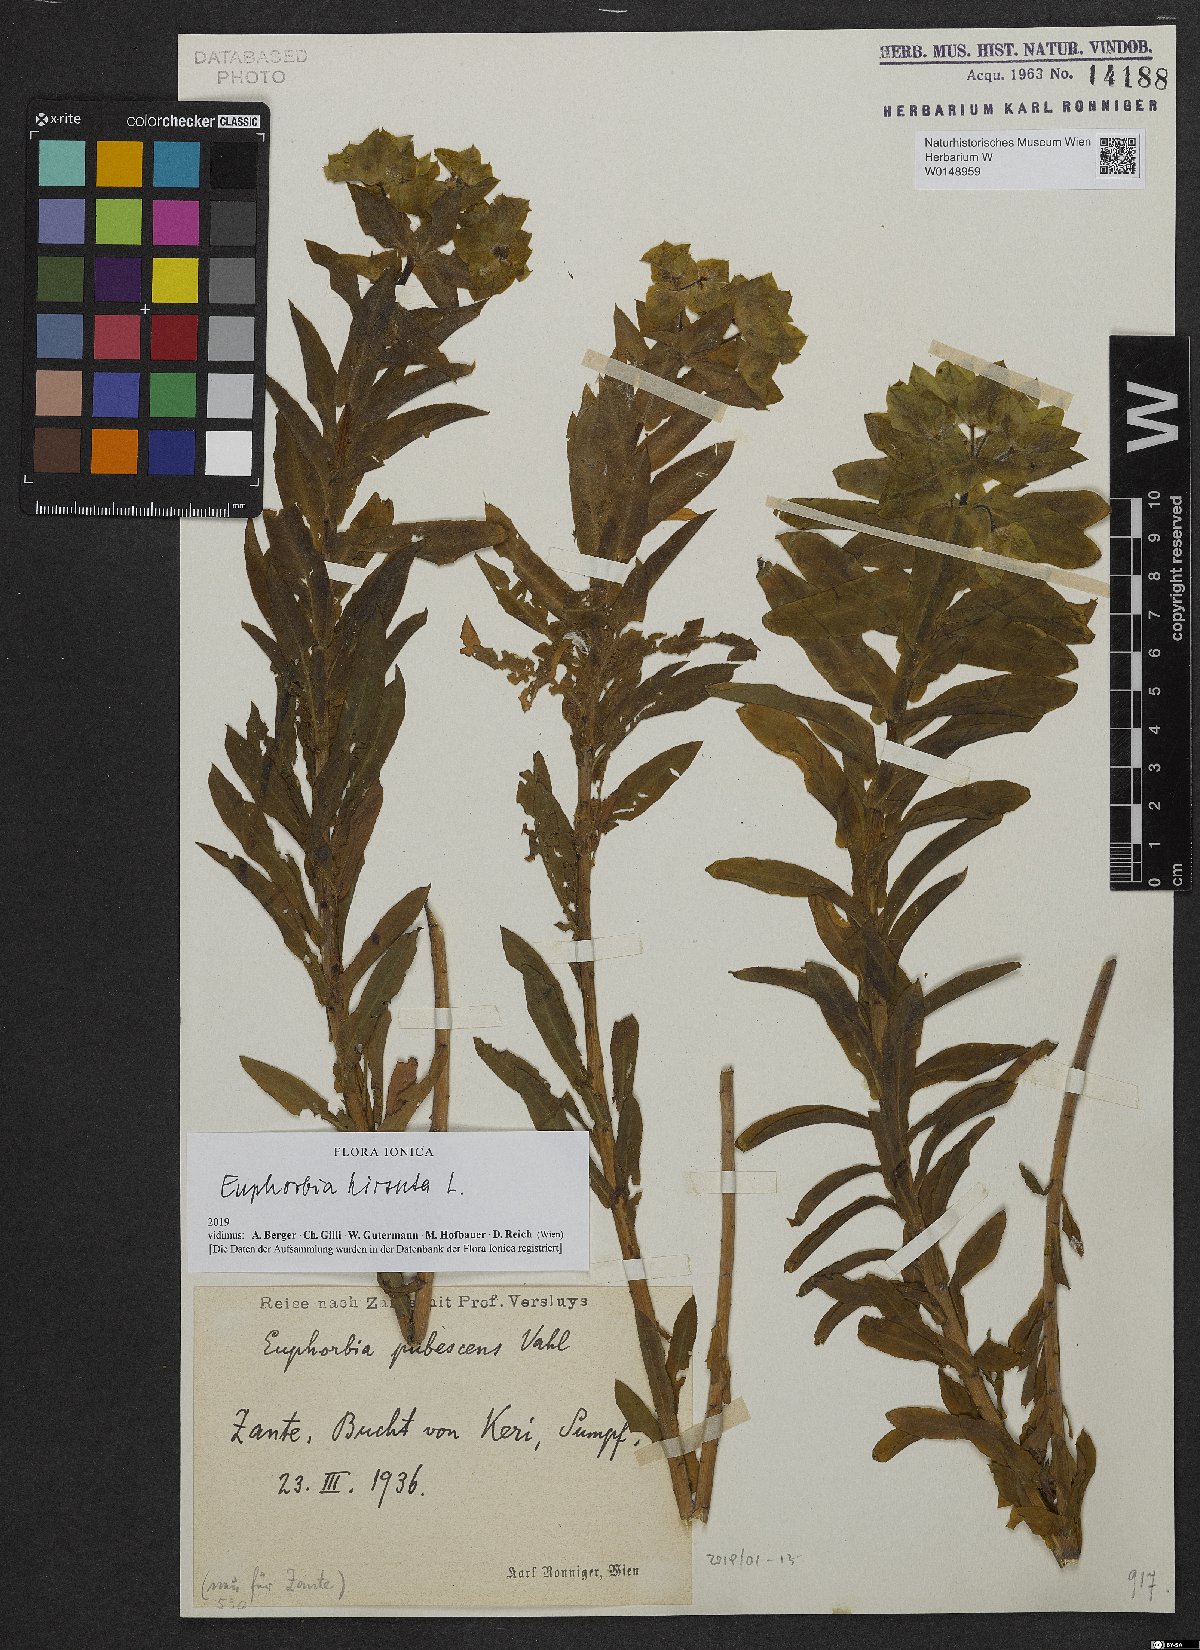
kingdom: Plantae
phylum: Tracheophyta
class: Magnoliopsida
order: Malpighiales
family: Euphorbiaceae
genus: Euphorbia
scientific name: Euphorbia hirsuta
